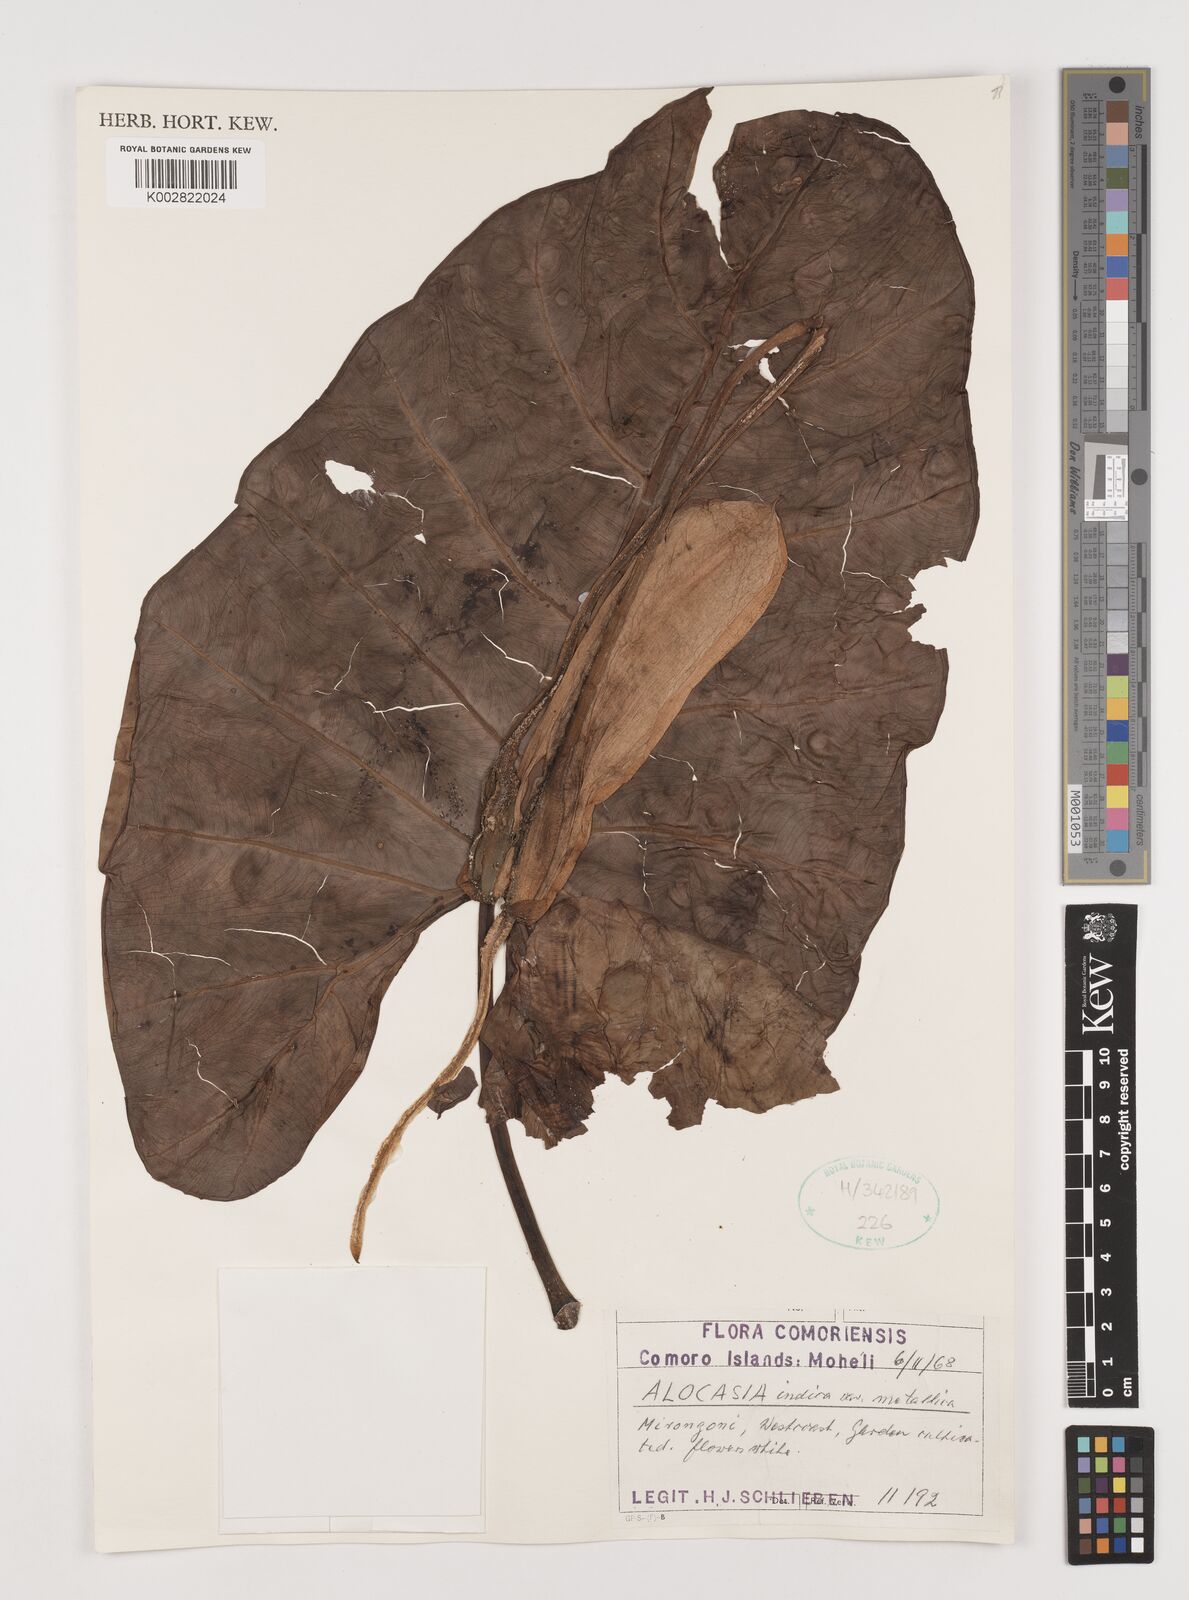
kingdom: Plantae
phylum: Tracheophyta
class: Liliopsida
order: Alismatales
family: Araceae
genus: Alocasia
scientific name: Alocasia indica
